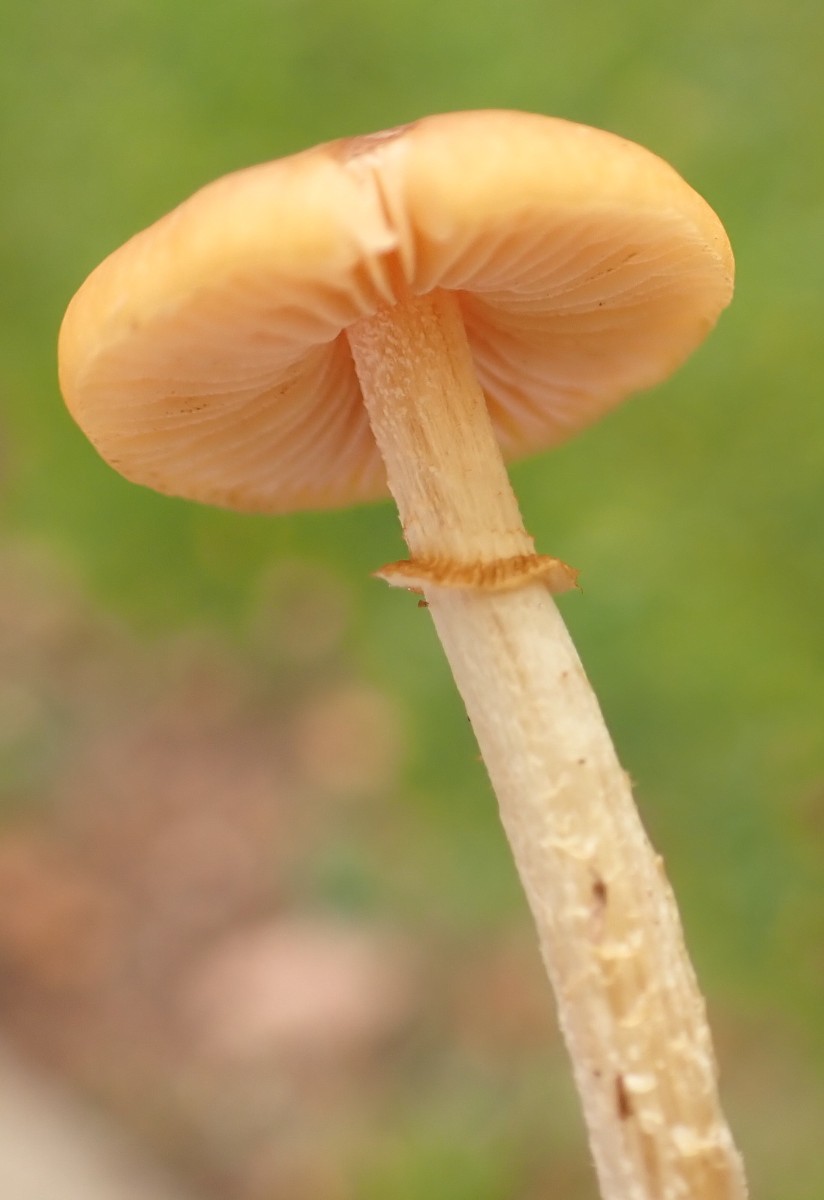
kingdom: Fungi
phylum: Basidiomycota
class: Agaricomycetes
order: Agaricales
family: Bolbitiaceae
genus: Conocybe
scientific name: Conocybe arrhenii
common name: ring-dansehat
